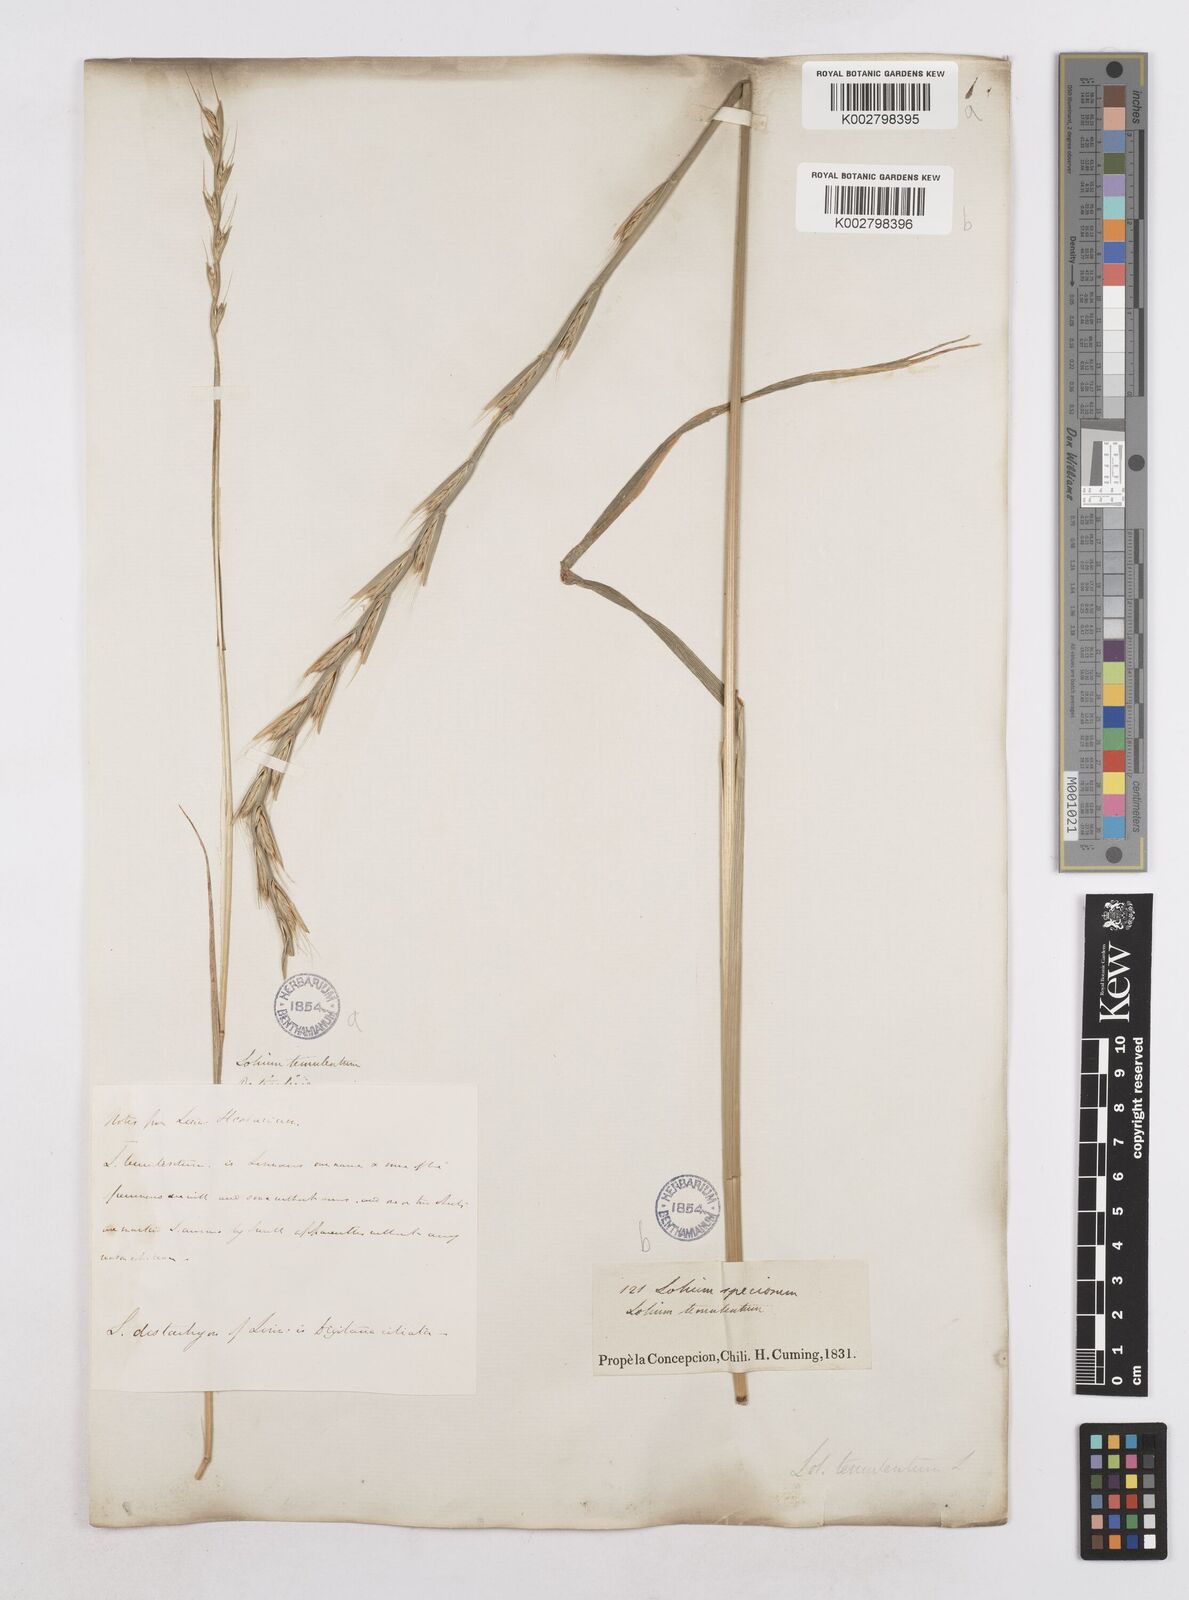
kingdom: Plantae
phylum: Tracheophyta
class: Liliopsida
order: Poales
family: Poaceae
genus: Lolium
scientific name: Lolium temulentum
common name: Darnel
